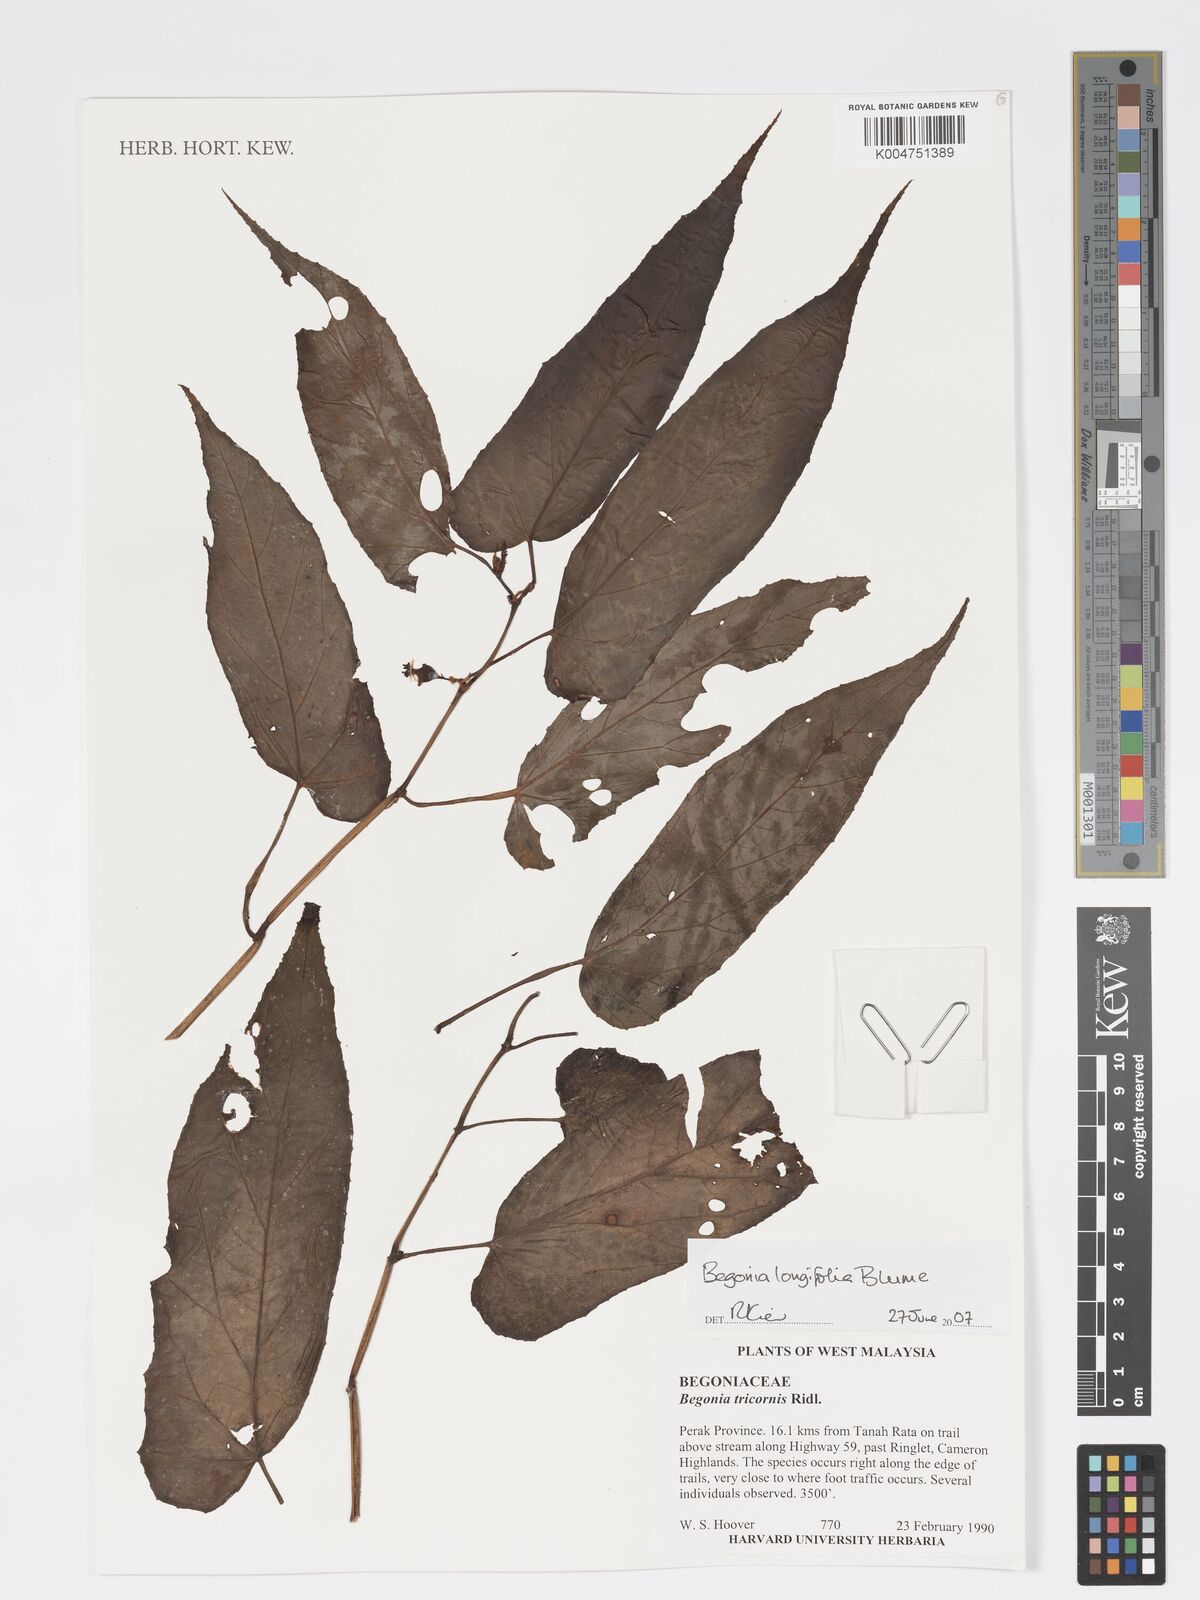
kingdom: Plantae
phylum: Tracheophyta
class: Magnoliopsida
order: Cucurbitales
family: Begoniaceae
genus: Begonia
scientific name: Begonia longifolia
